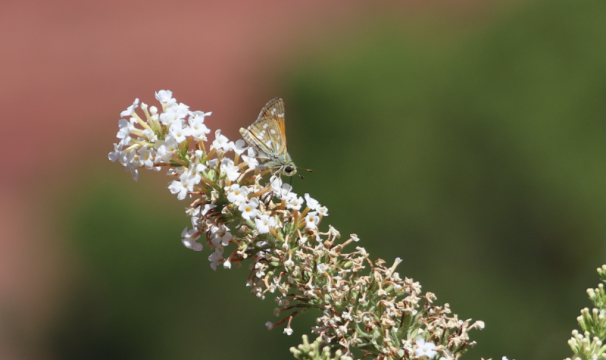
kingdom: Animalia
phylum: Arthropoda
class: Insecta
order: Lepidoptera
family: Hesperiidae
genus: Hesperia
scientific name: Hesperia comma
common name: Western Branded Skipper
